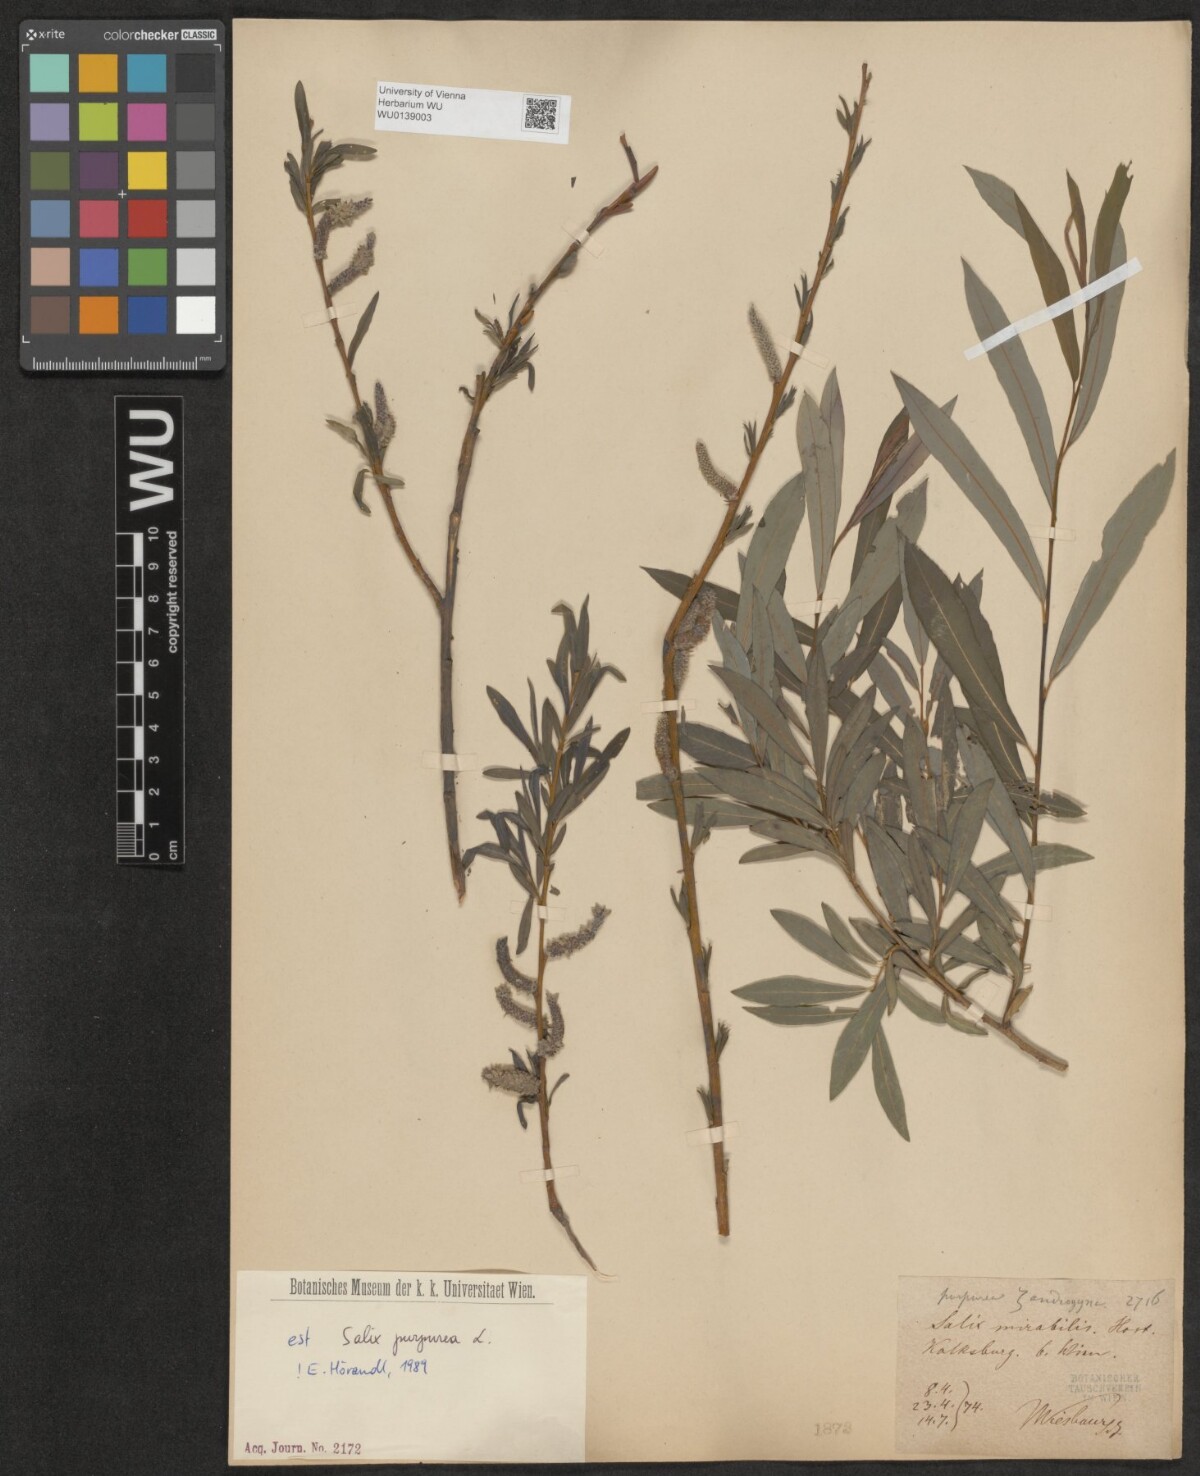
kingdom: Plantae
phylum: Tracheophyta
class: Magnoliopsida
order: Malpighiales
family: Salicaceae
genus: Salix
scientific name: Salix purpurea
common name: Purple willow
